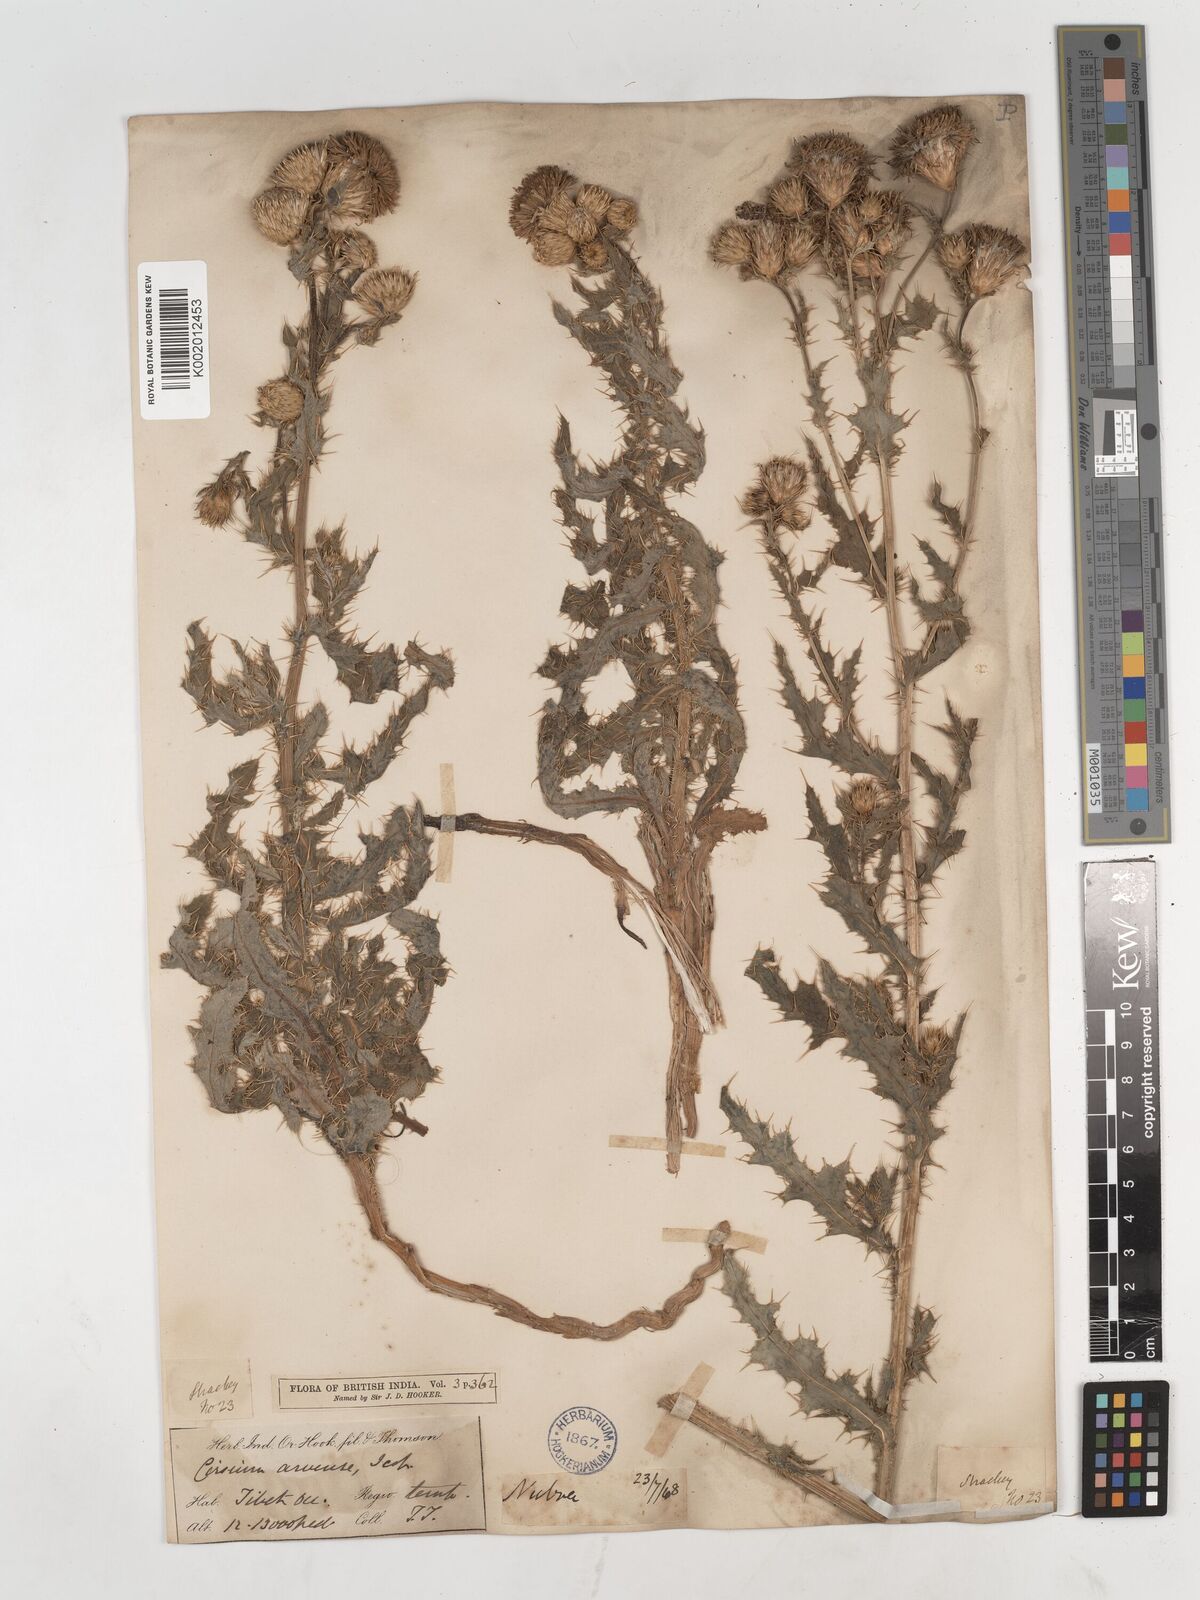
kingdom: Plantae
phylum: Tracheophyta
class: Magnoliopsida
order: Asterales
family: Asteraceae
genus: Cirsium
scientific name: Cirsium arvense
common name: Creeping thistle
